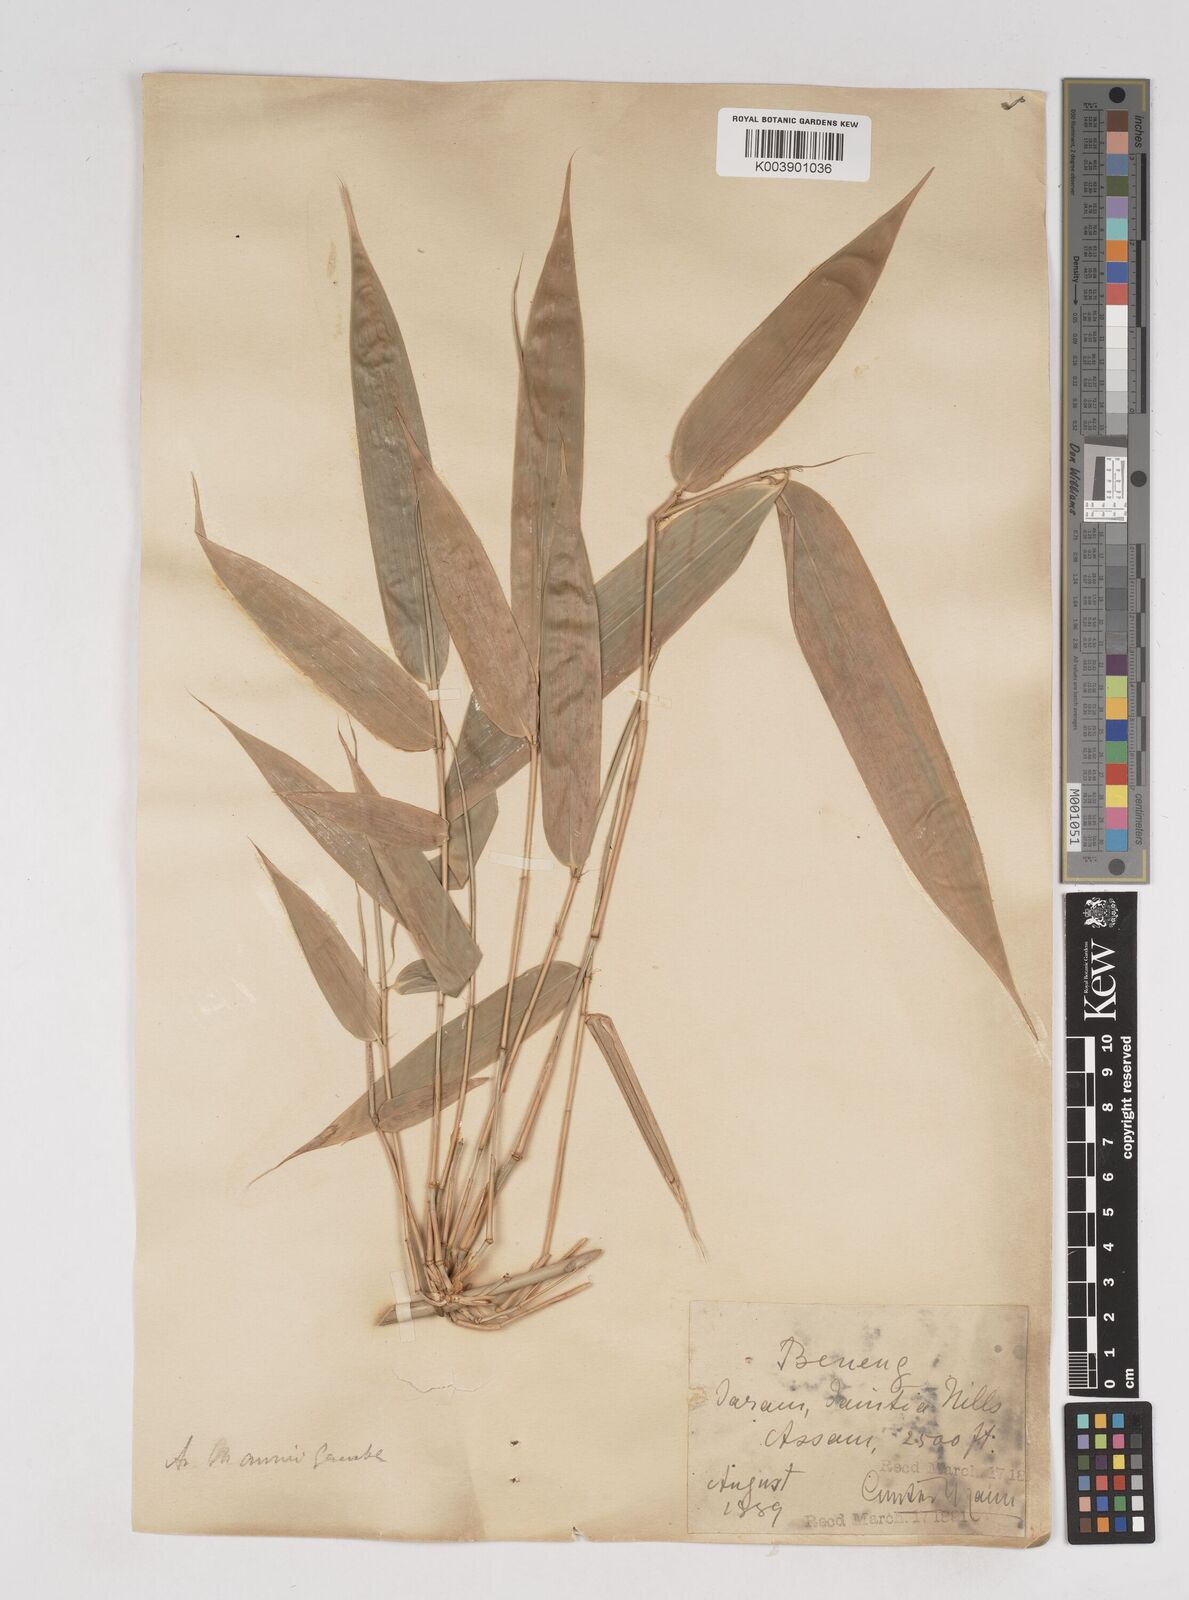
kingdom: Plantae
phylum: Tracheophyta
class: Liliopsida
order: Poales
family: Poaceae
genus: Cephalostachyum
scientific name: Cephalostachyum mannii
